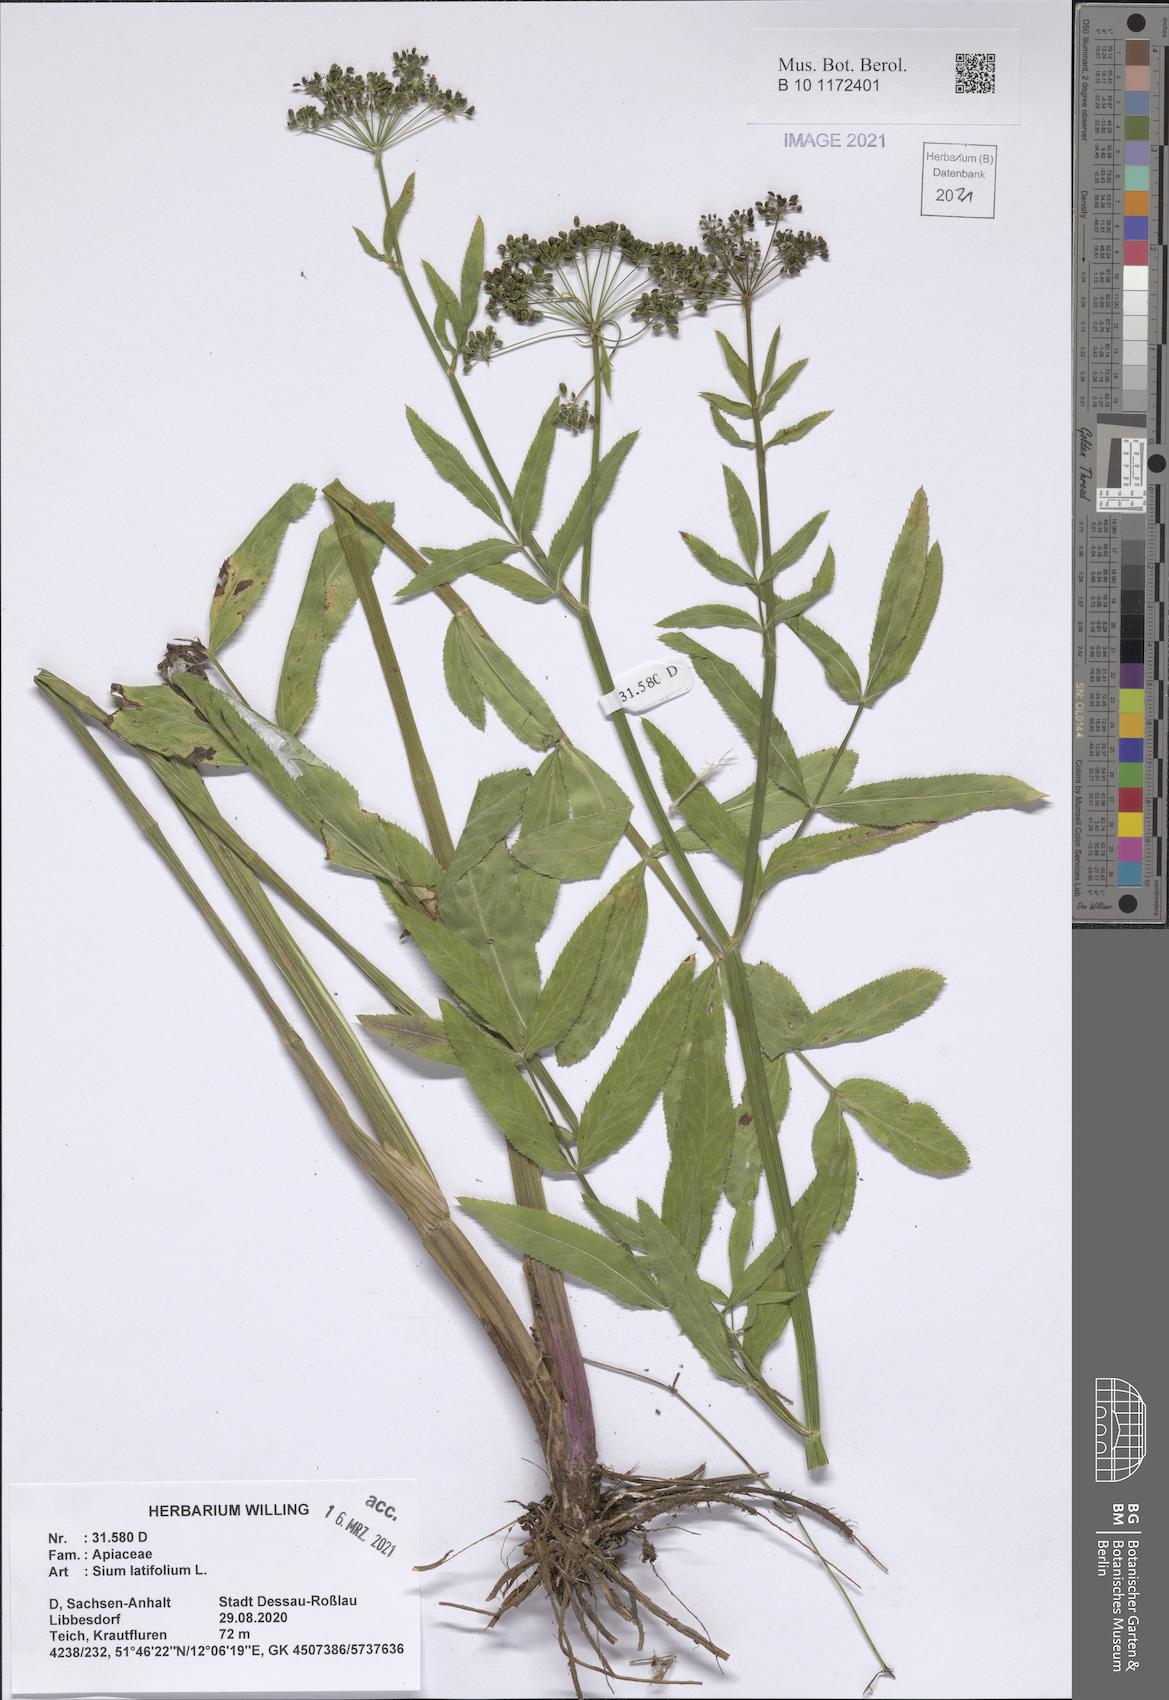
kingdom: Plantae
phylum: Tracheophyta
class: Magnoliopsida
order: Apiales
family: Apiaceae
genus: Sium
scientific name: Sium latifolium
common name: Greater water-parsnip
